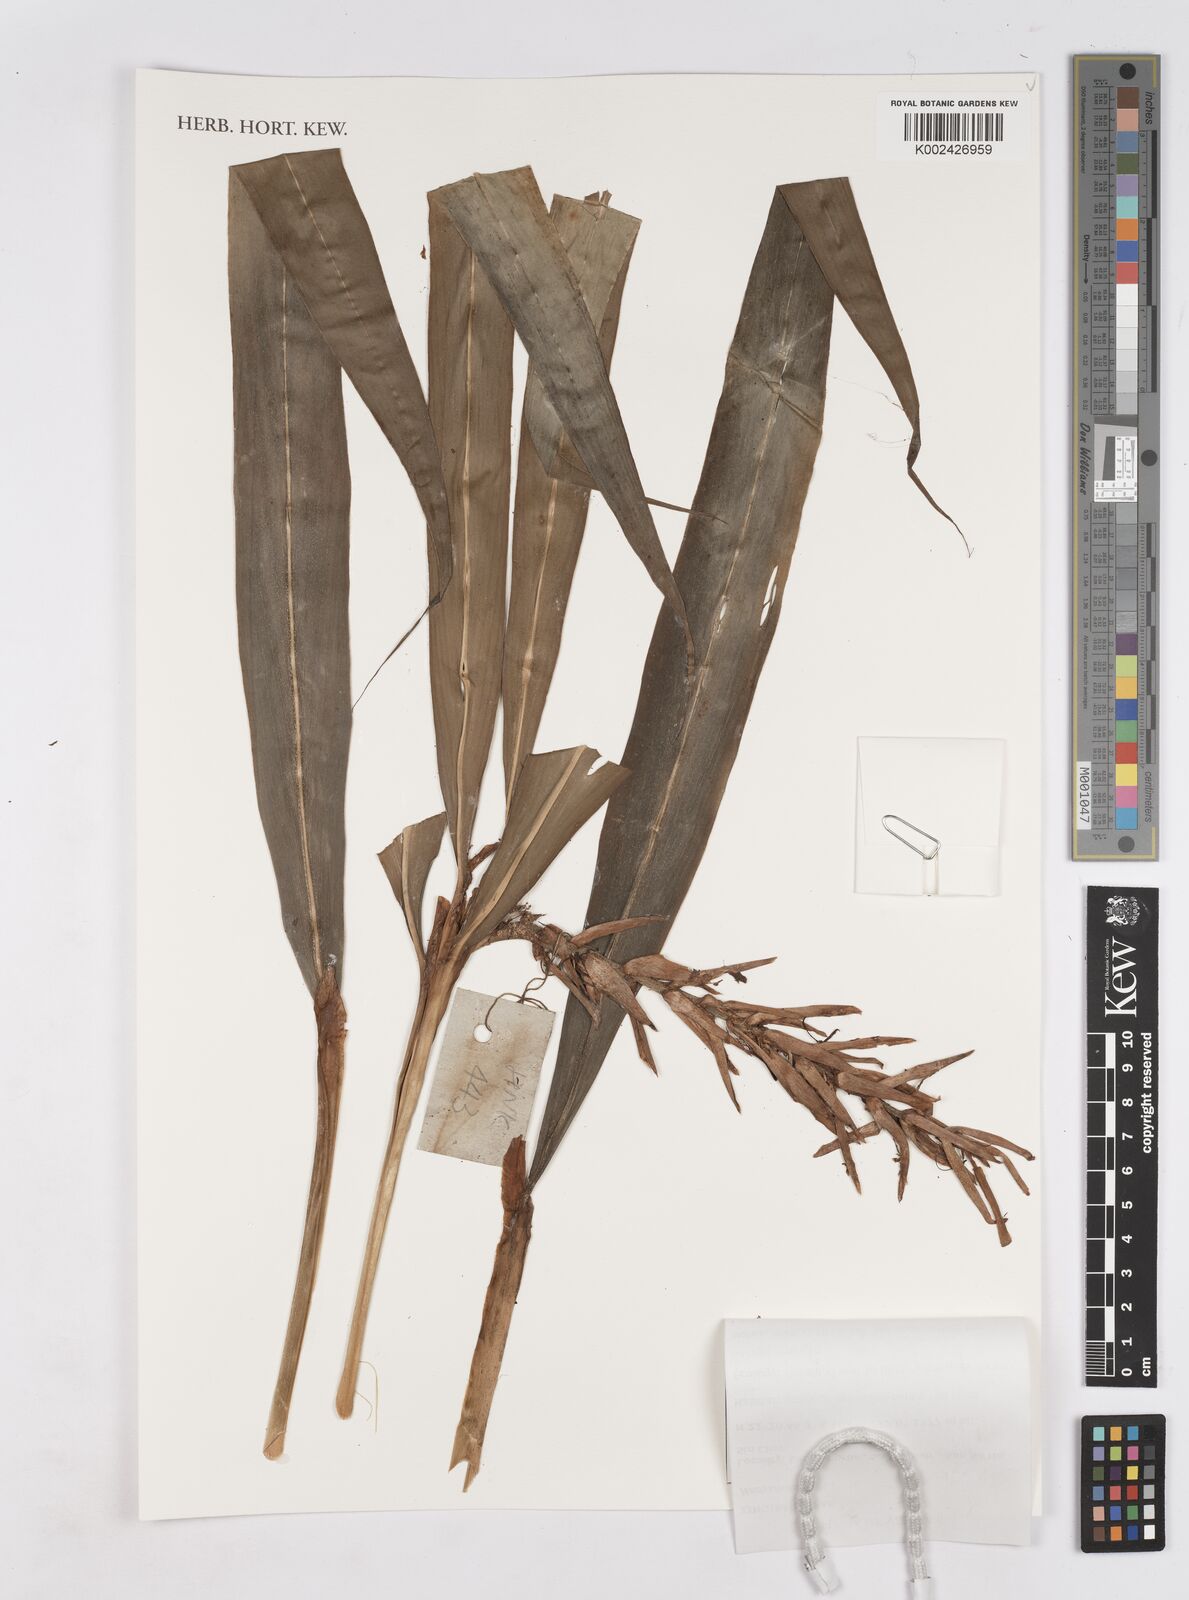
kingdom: Plantae
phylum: Tracheophyta
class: Liliopsida
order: Zingiberales
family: Zingiberaceae
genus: Hedychium
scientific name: Hedychium
